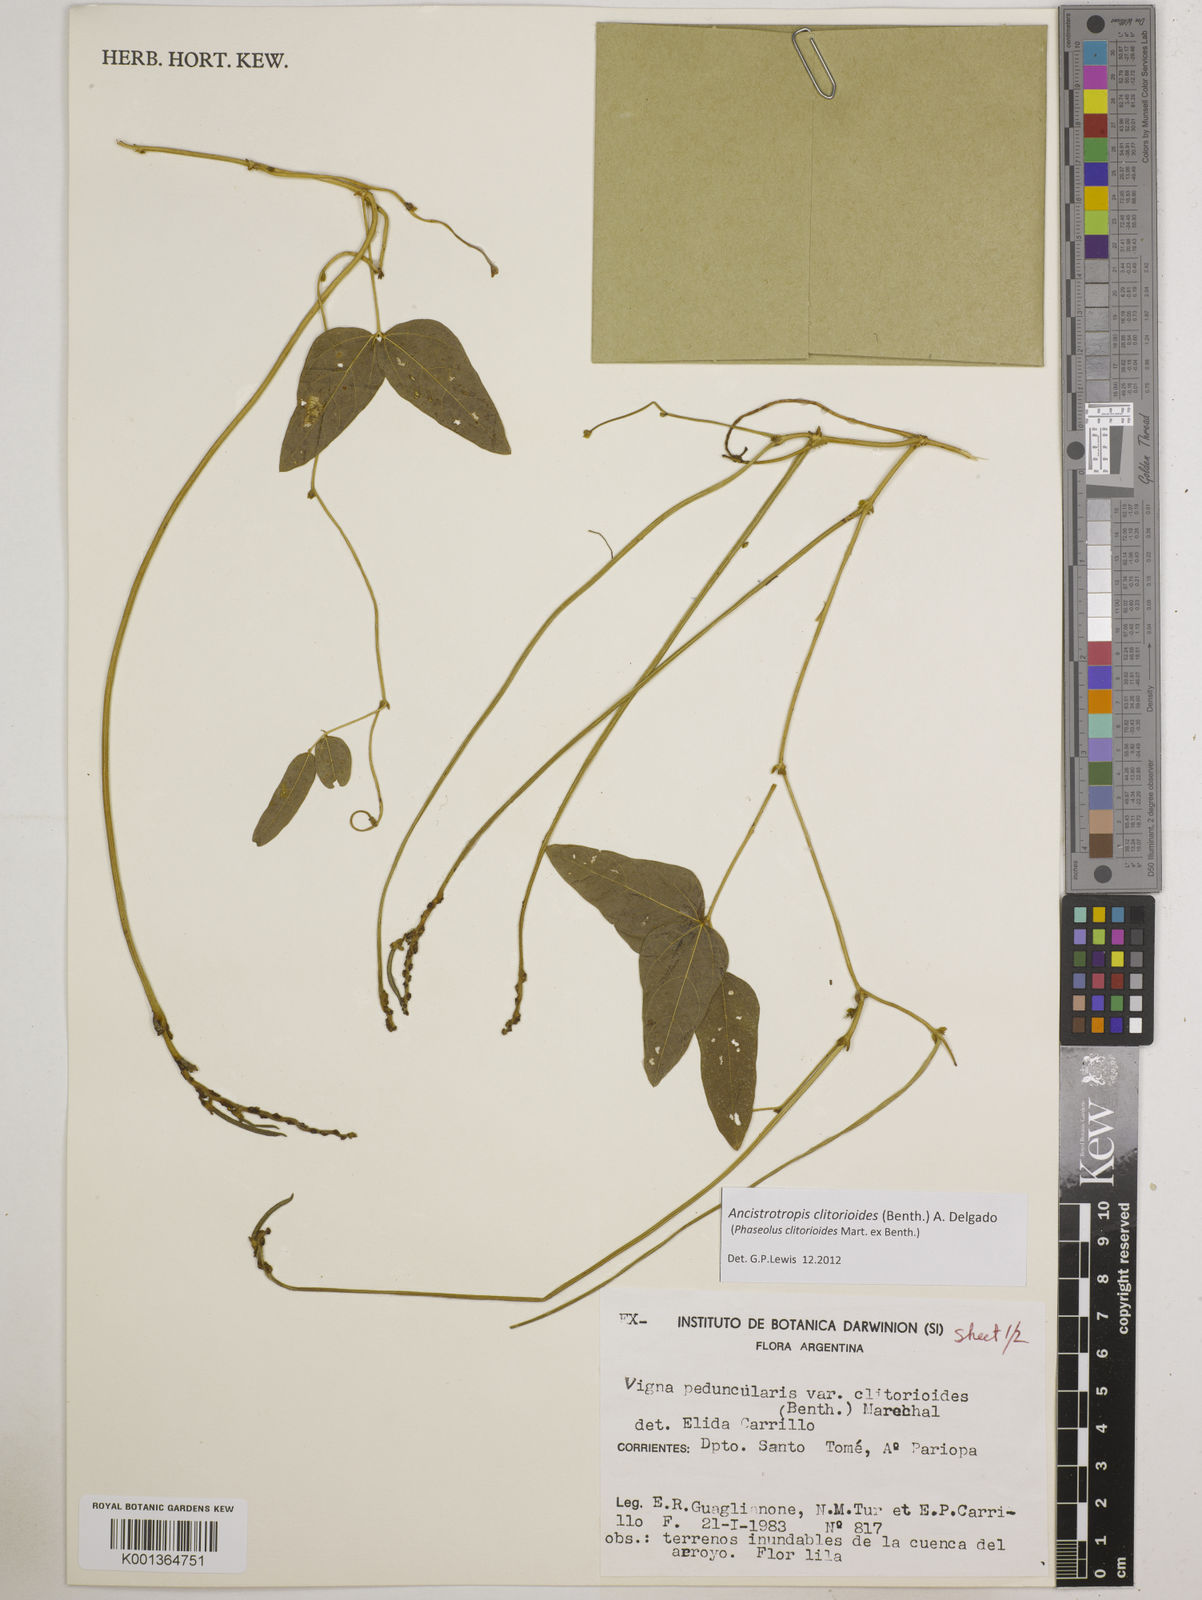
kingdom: Plantae
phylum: Tracheophyta
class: Magnoliopsida
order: Fabales
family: Fabaceae
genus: Ancistrotropis
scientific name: Ancistrotropis clitorioides
